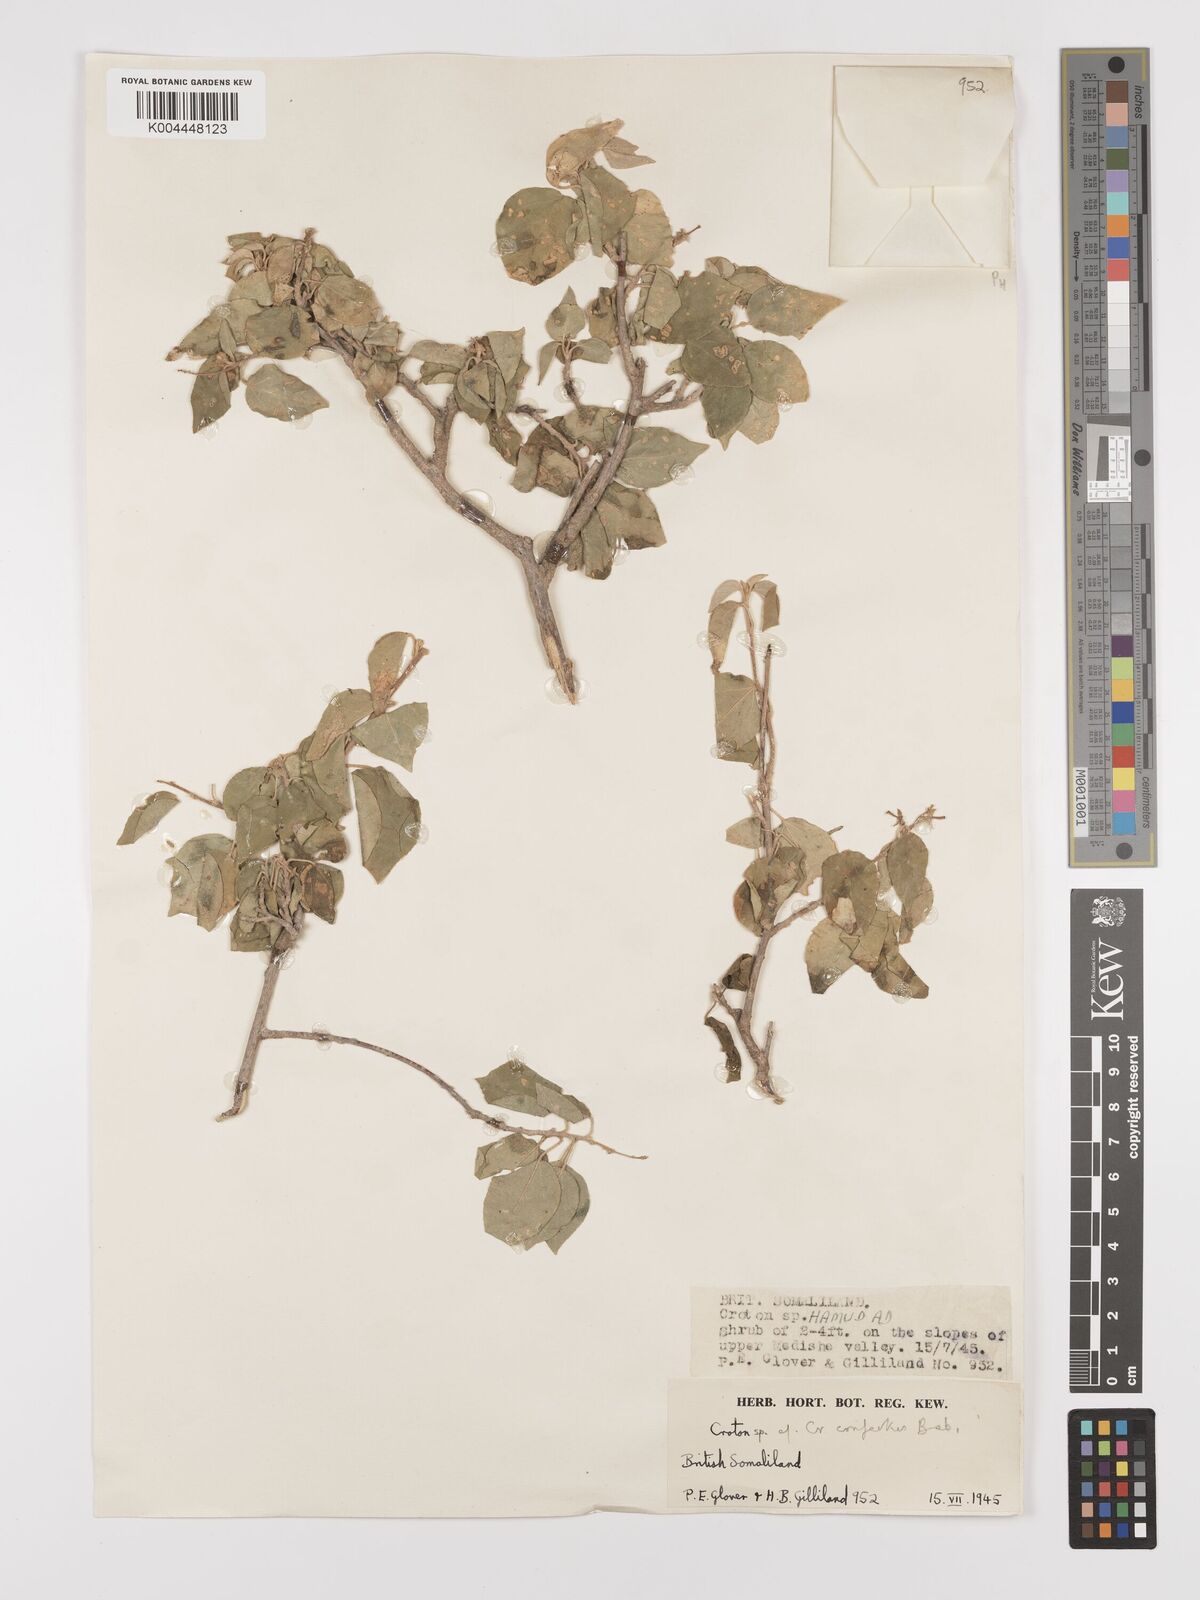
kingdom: Plantae
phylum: Tracheophyta
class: Magnoliopsida
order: Malpighiales
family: Euphorbiaceae
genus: Croton
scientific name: Croton confertus
